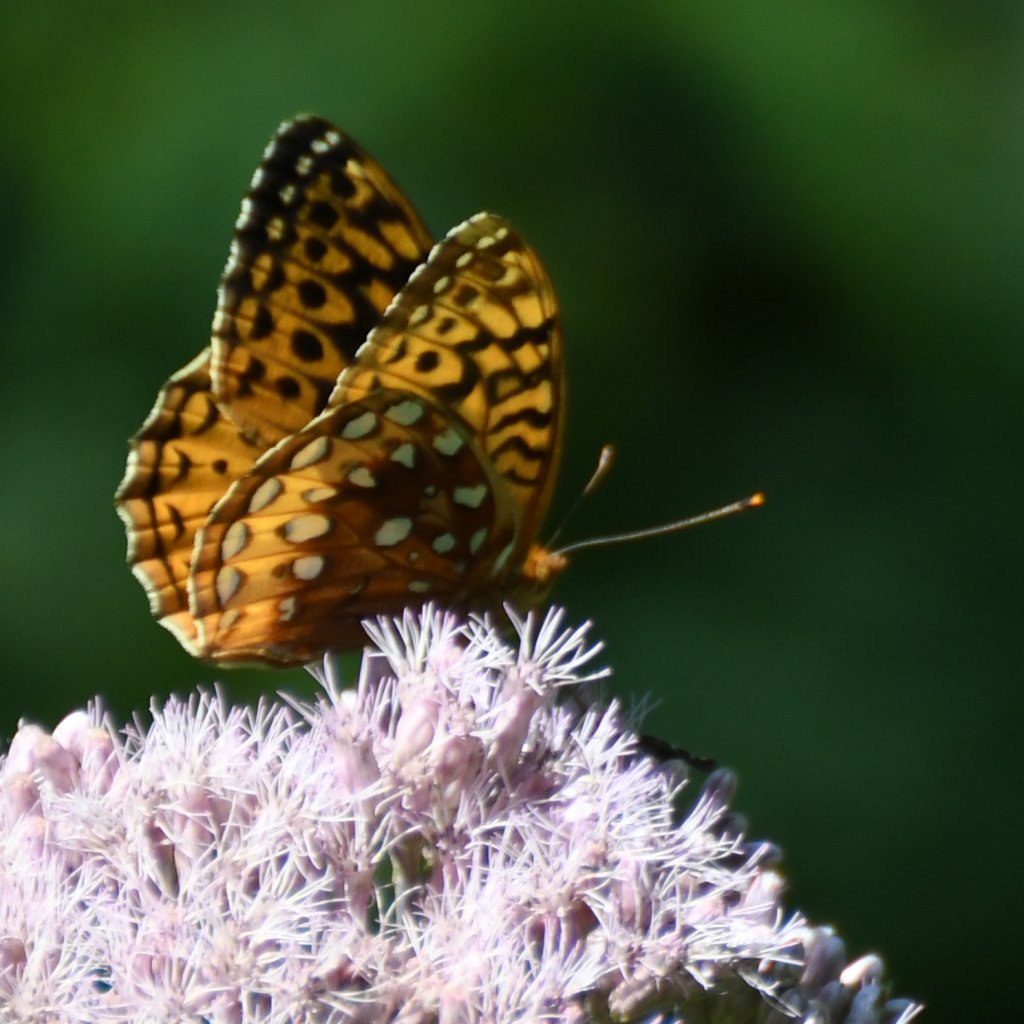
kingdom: Animalia
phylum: Arthropoda
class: Insecta
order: Lepidoptera
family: Nymphalidae
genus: Speyeria
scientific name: Speyeria cybele
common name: Great Spangled Fritillary
